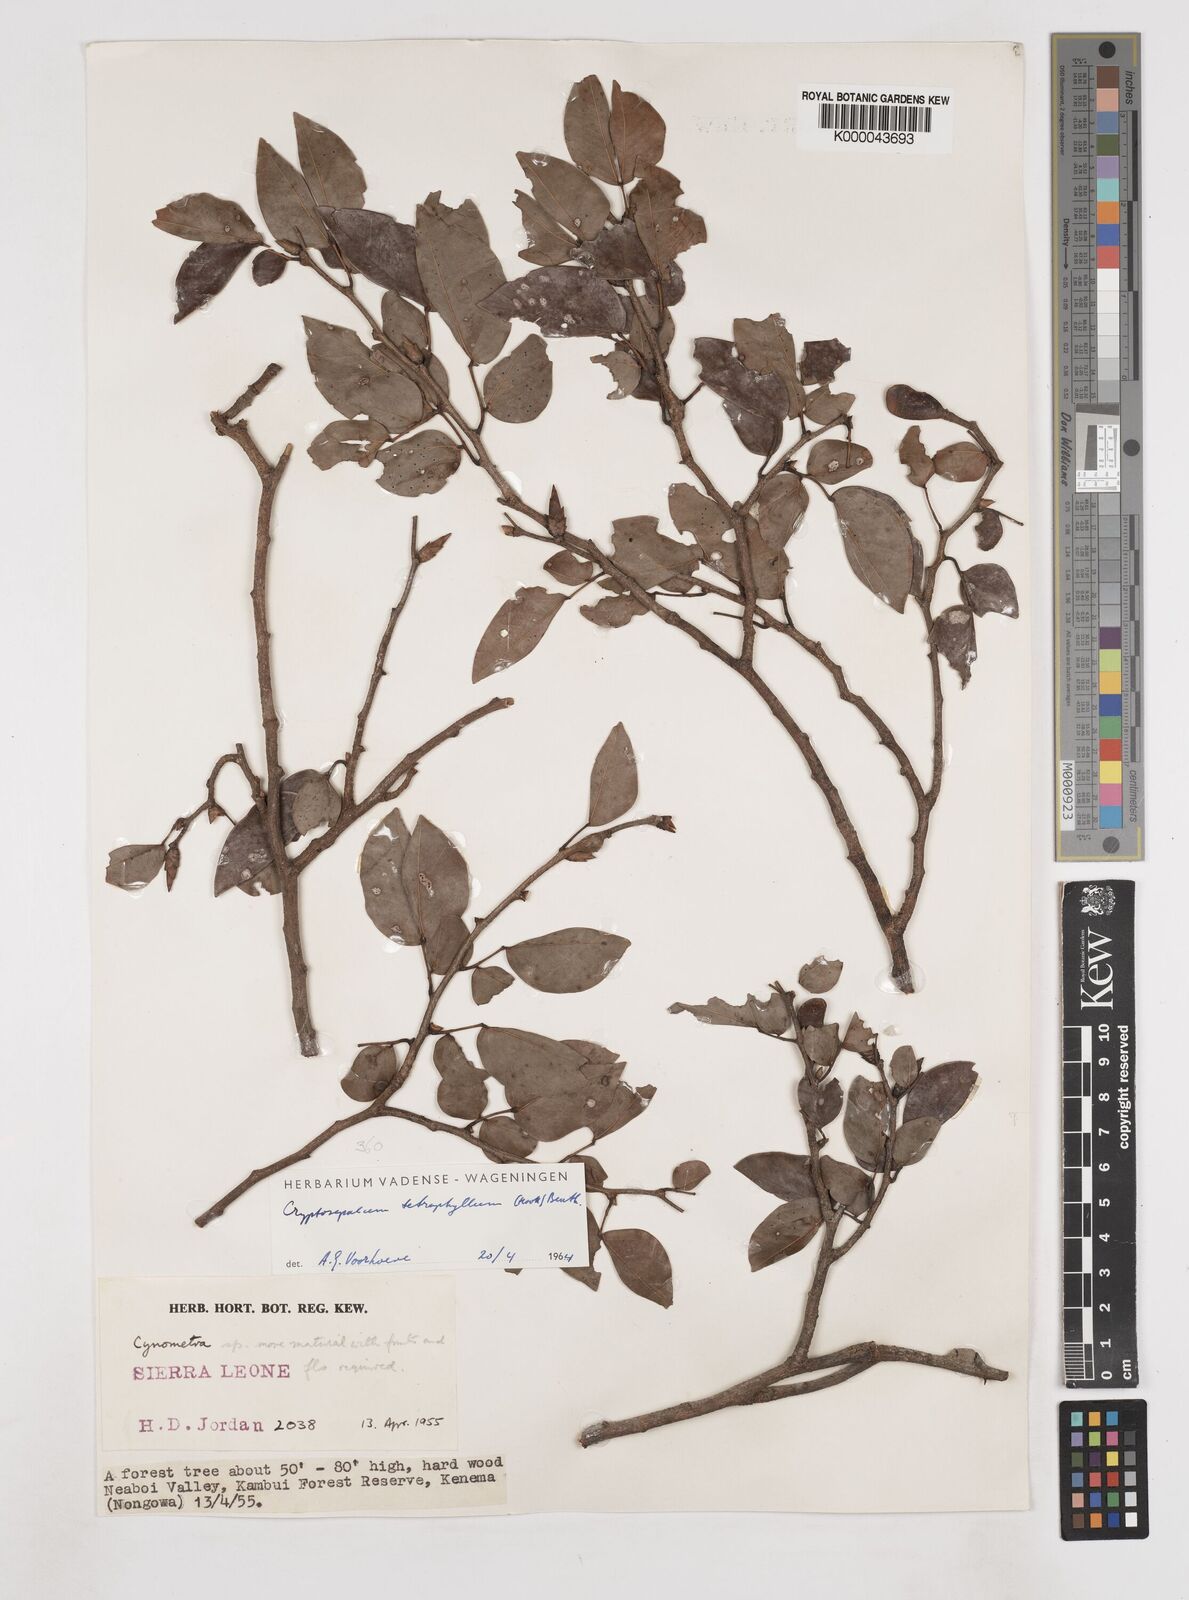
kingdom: Plantae
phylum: Tracheophyta
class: Magnoliopsida
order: Fabales
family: Fabaceae
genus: Cryptosepalum
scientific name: Cryptosepalum tetraphyllum
